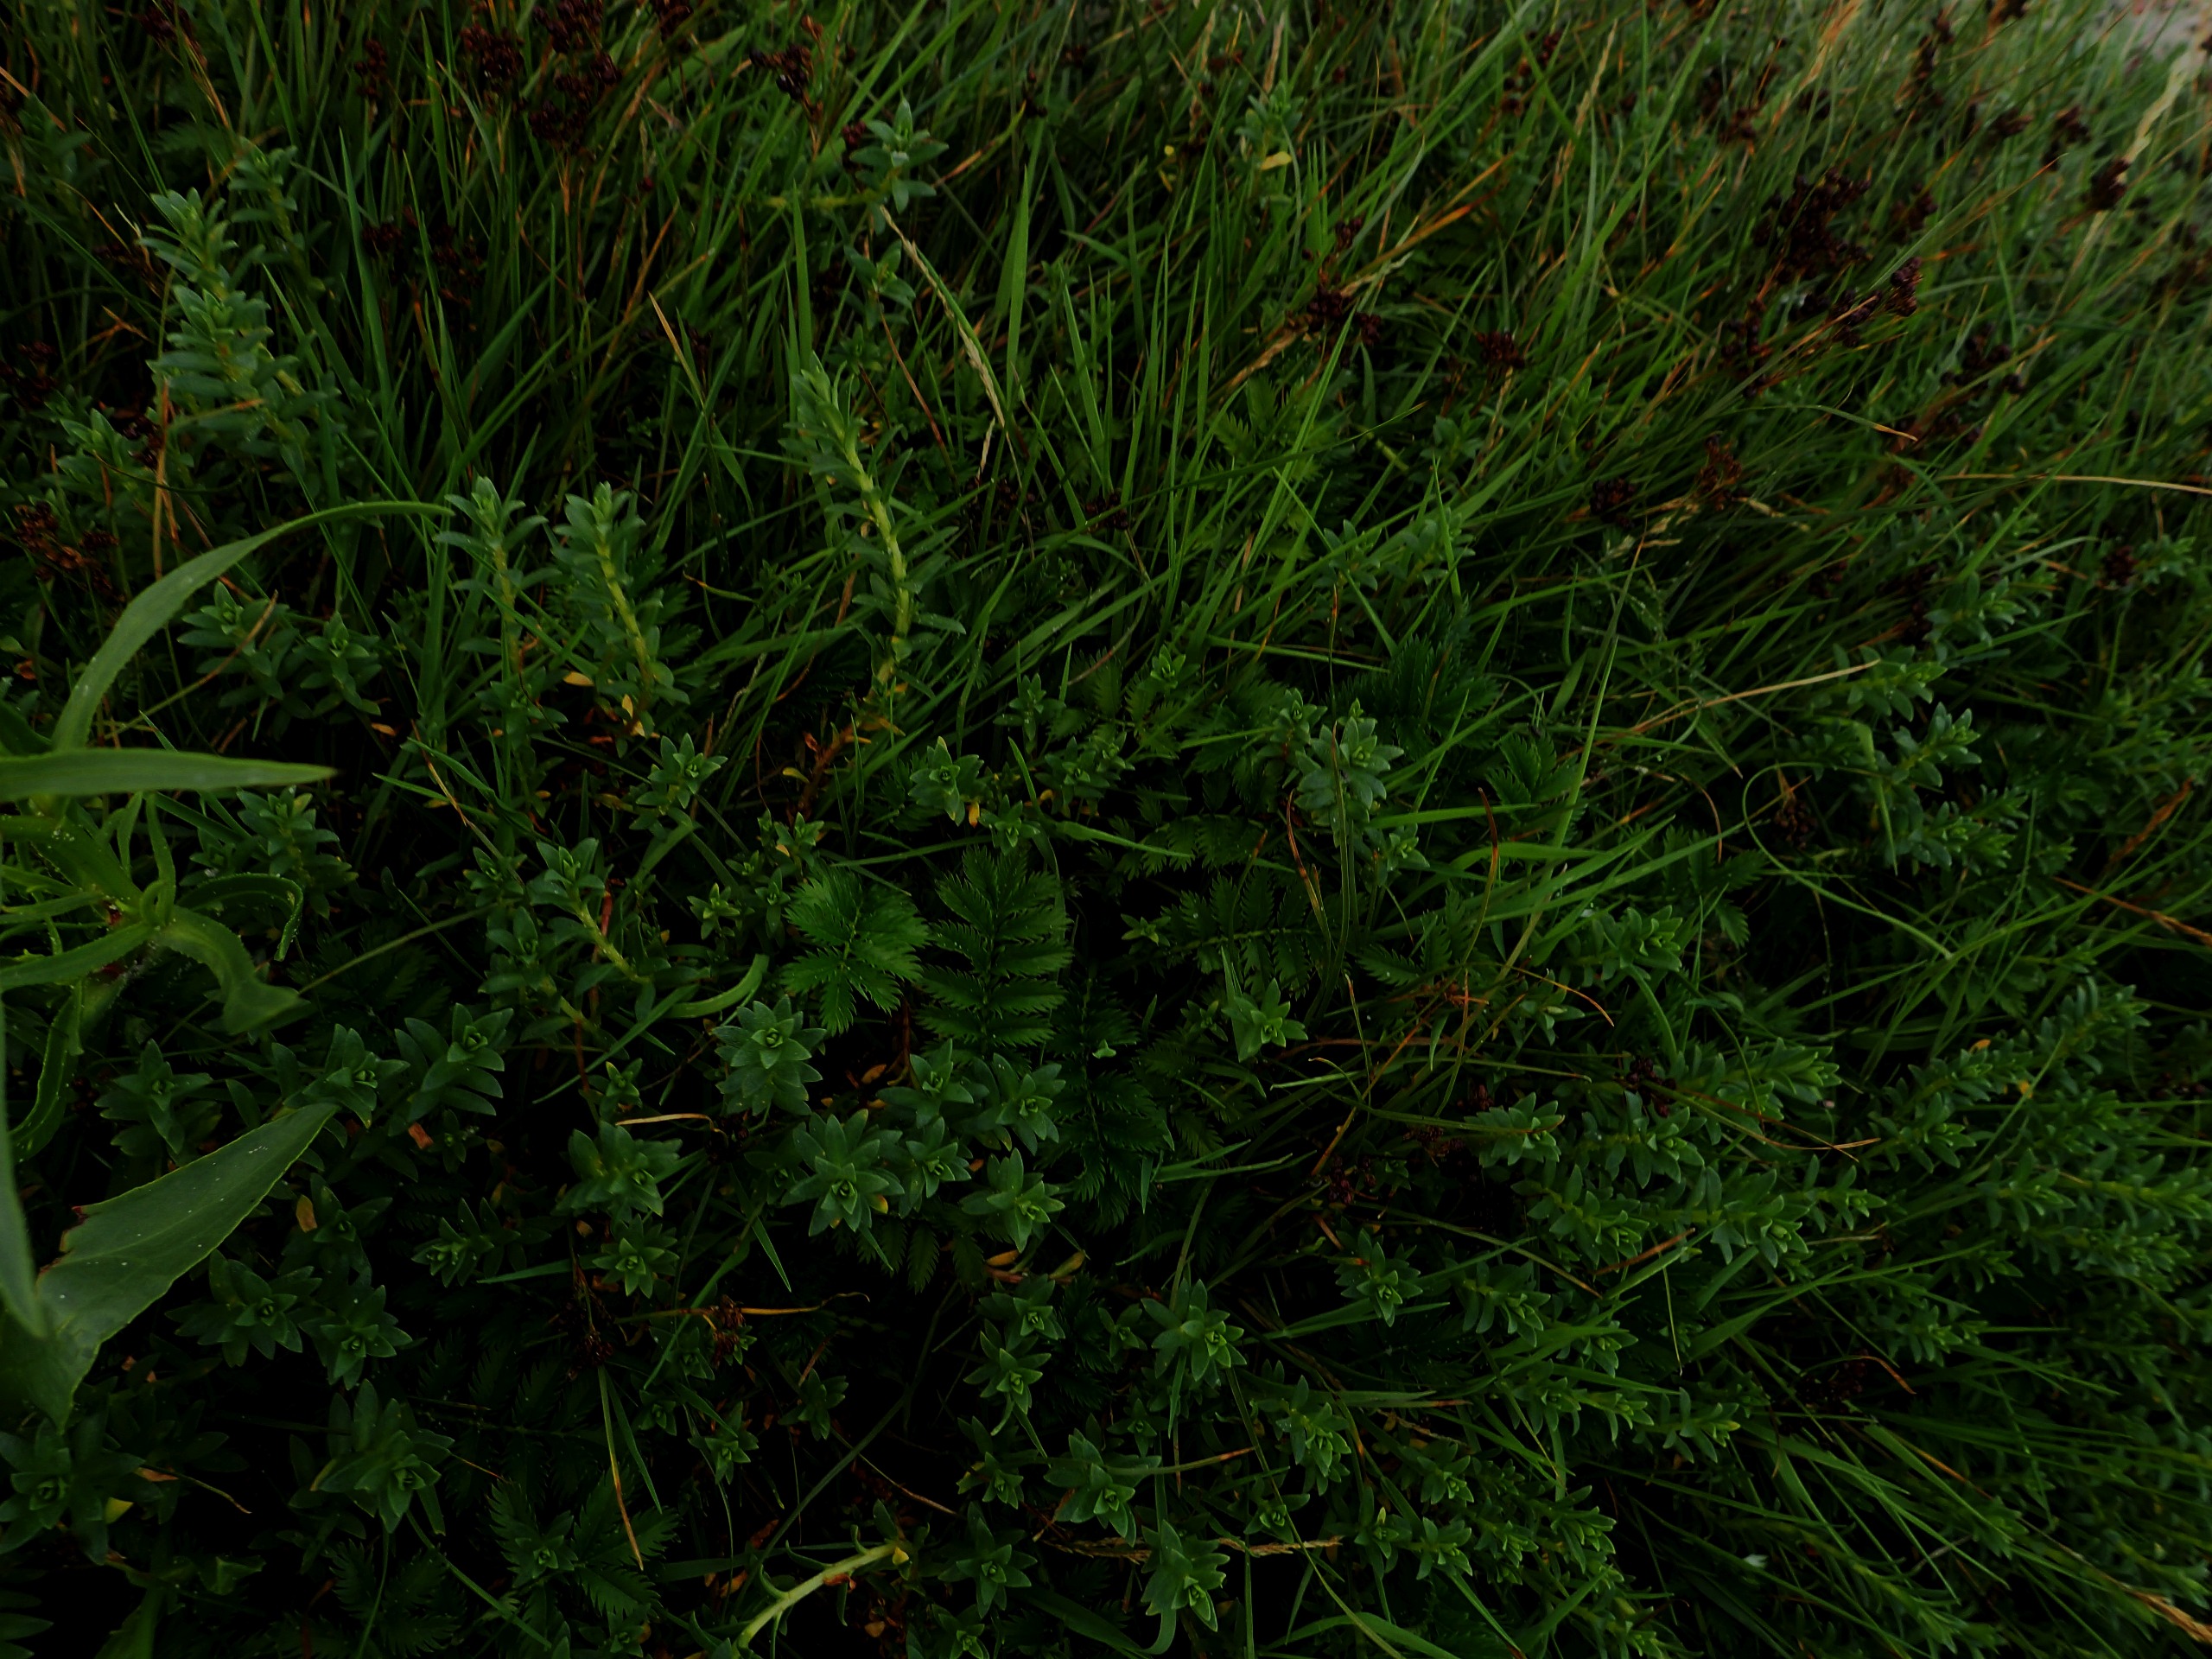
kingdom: Plantae
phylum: Tracheophyta
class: Magnoliopsida
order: Ericales
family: Primulaceae
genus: Lysimachia
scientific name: Lysimachia maritima
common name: Sandkryb
